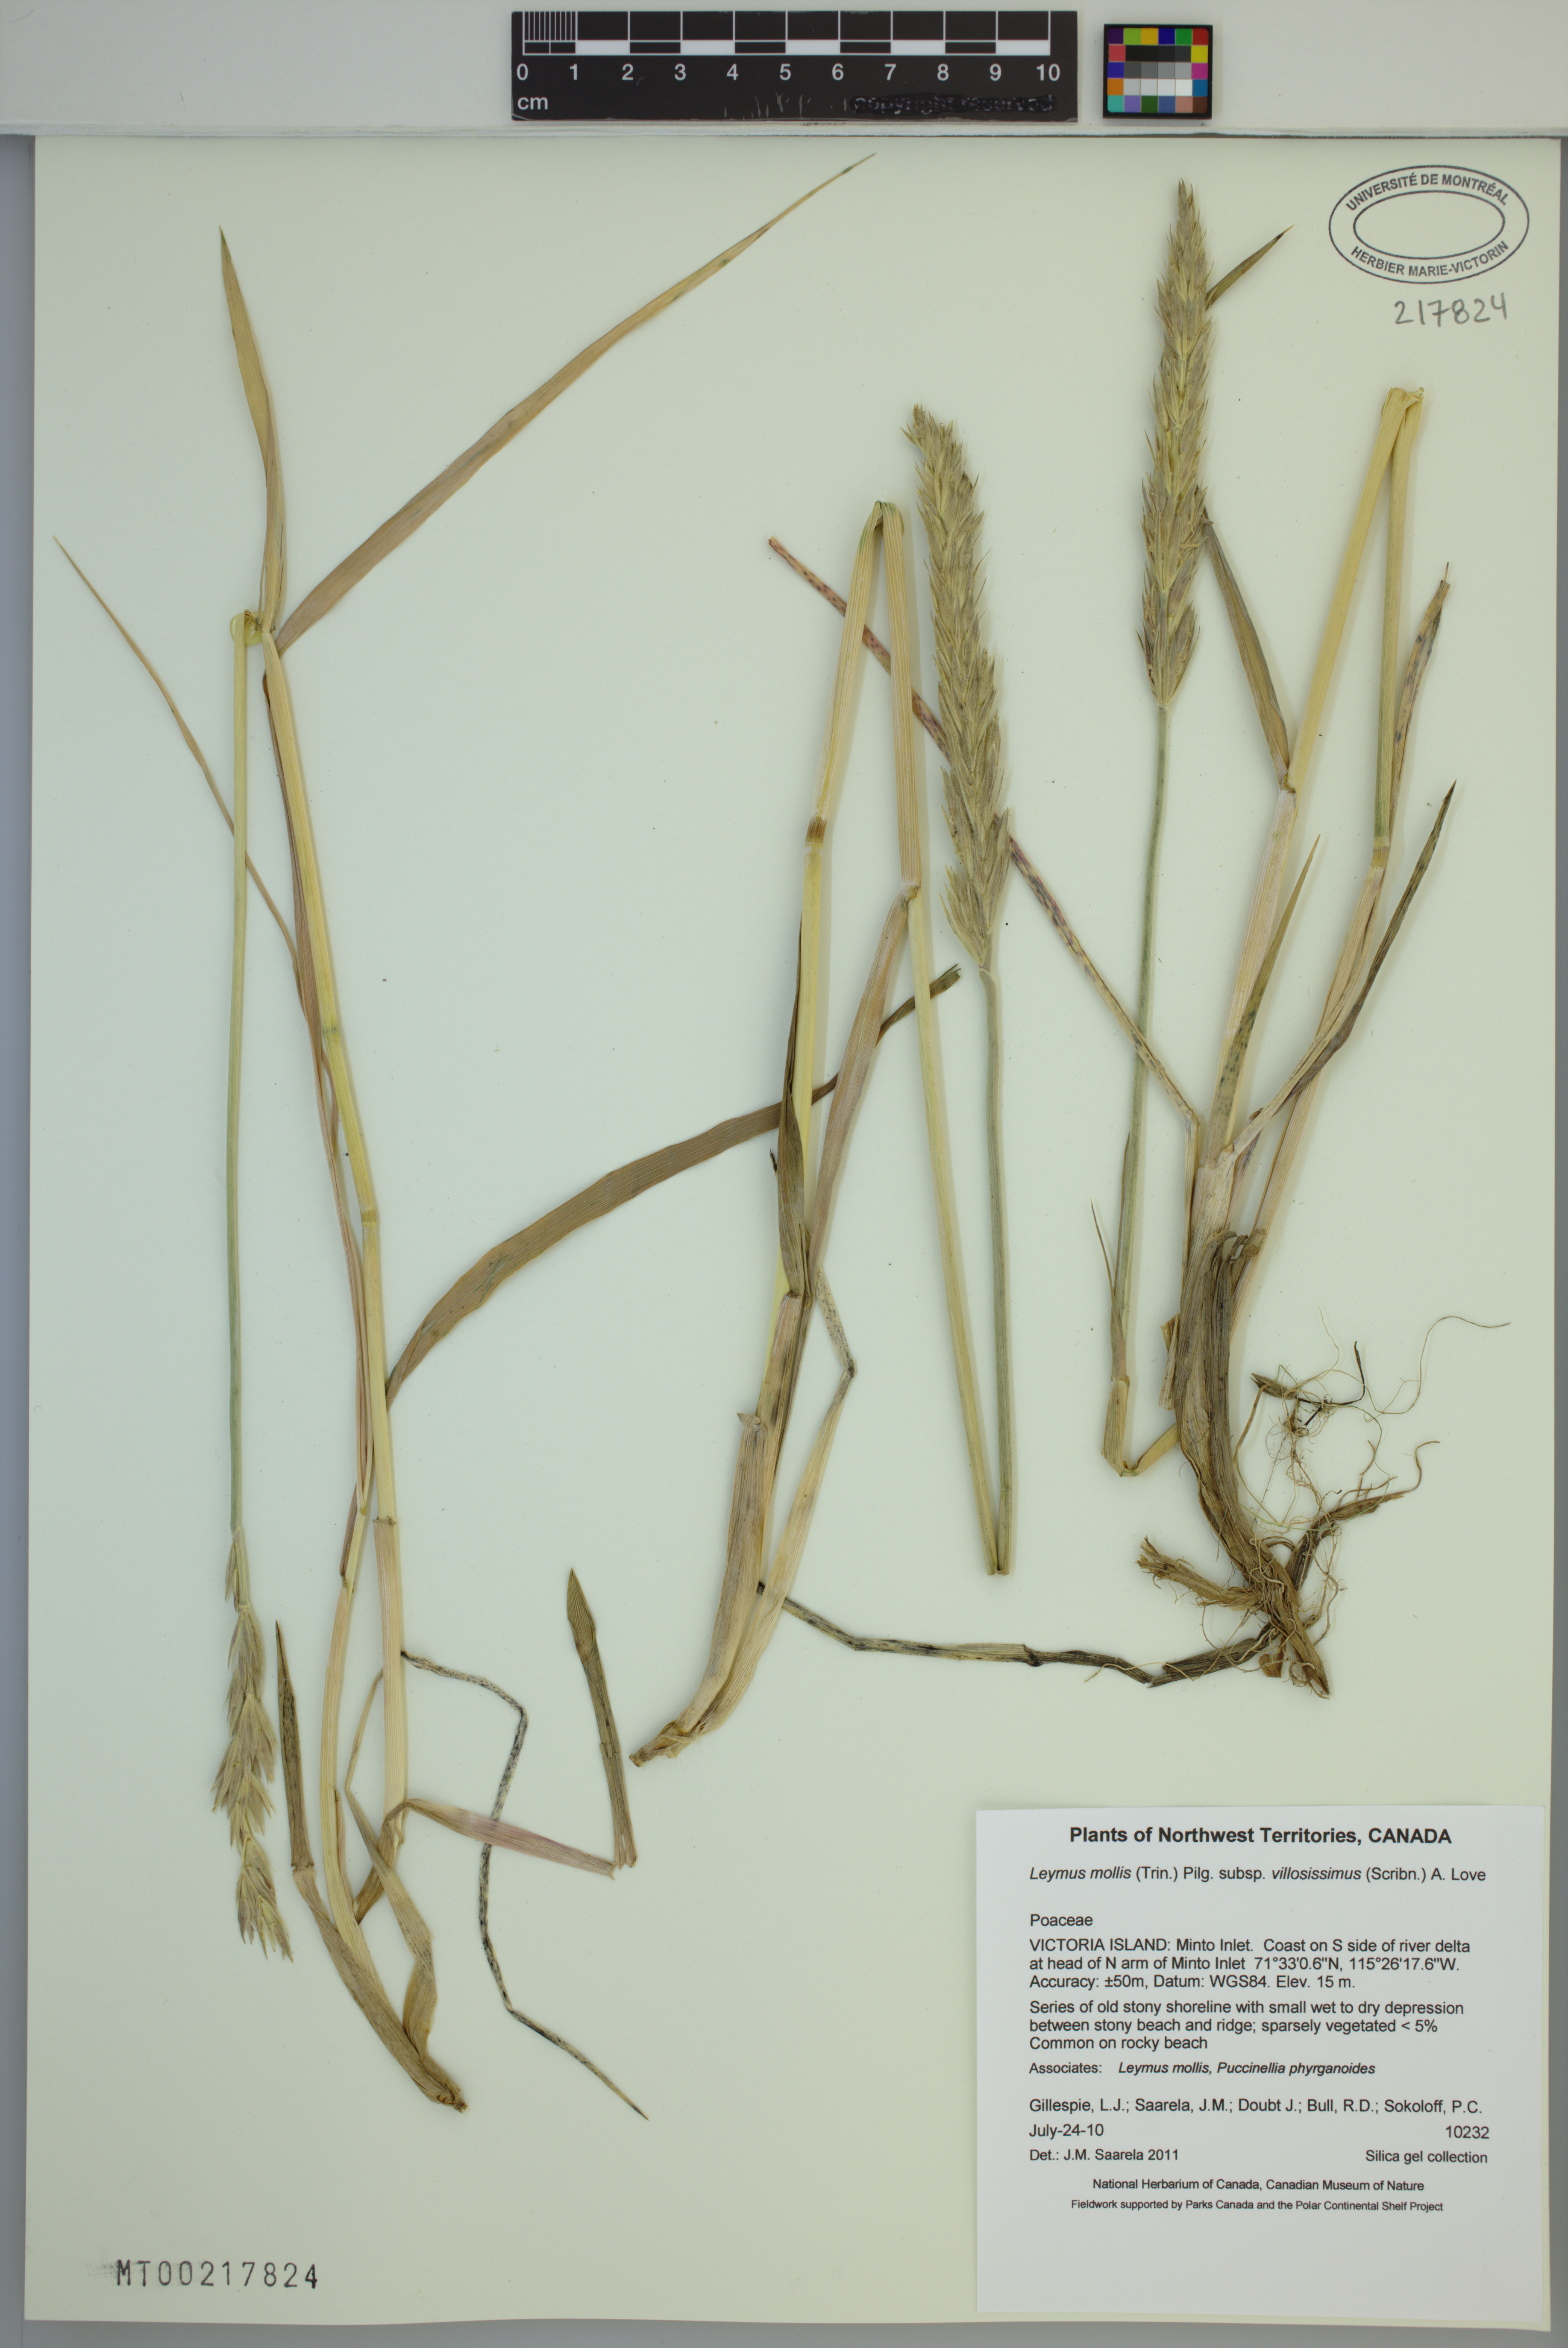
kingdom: Plantae
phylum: Tracheophyta
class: Liliopsida
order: Poales
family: Poaceae
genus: Leymus
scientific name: Leymus villosissimus
